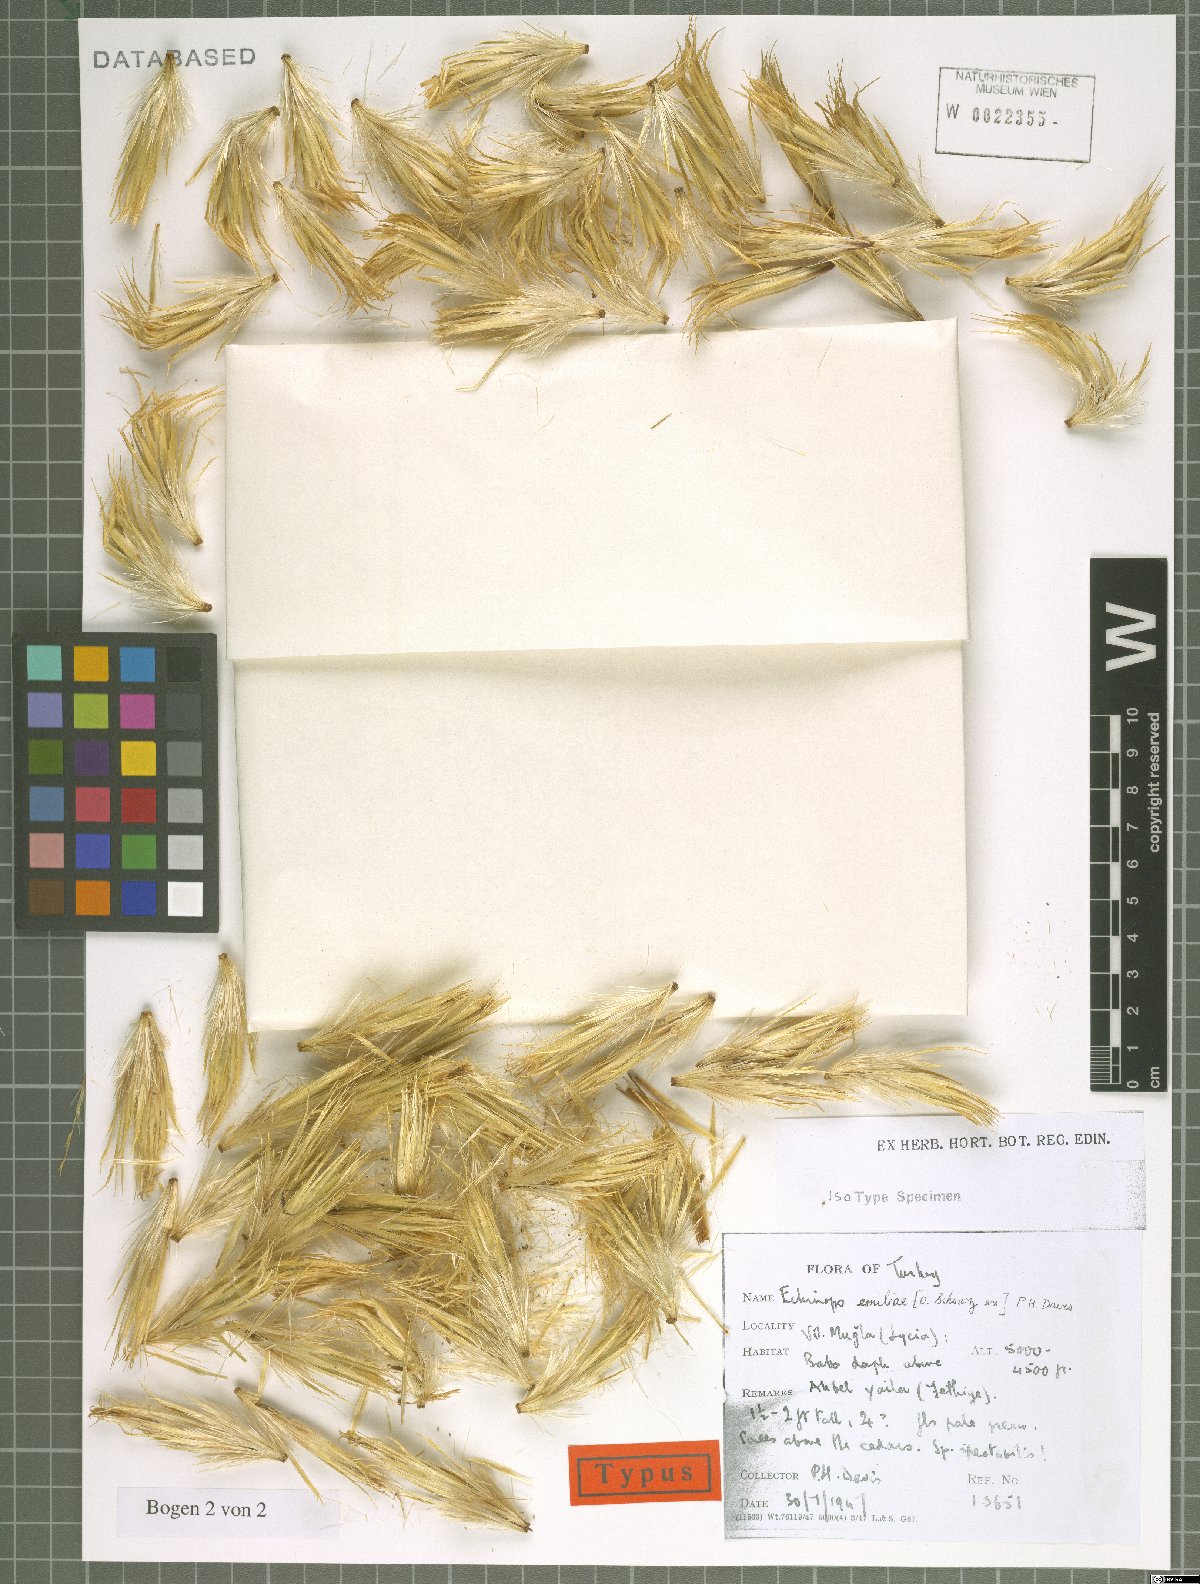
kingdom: Plantae
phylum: Tracheophyta
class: Magnoliopsida
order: Asterales
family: Asteraceae
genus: Echinops
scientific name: Echinops emiliae
